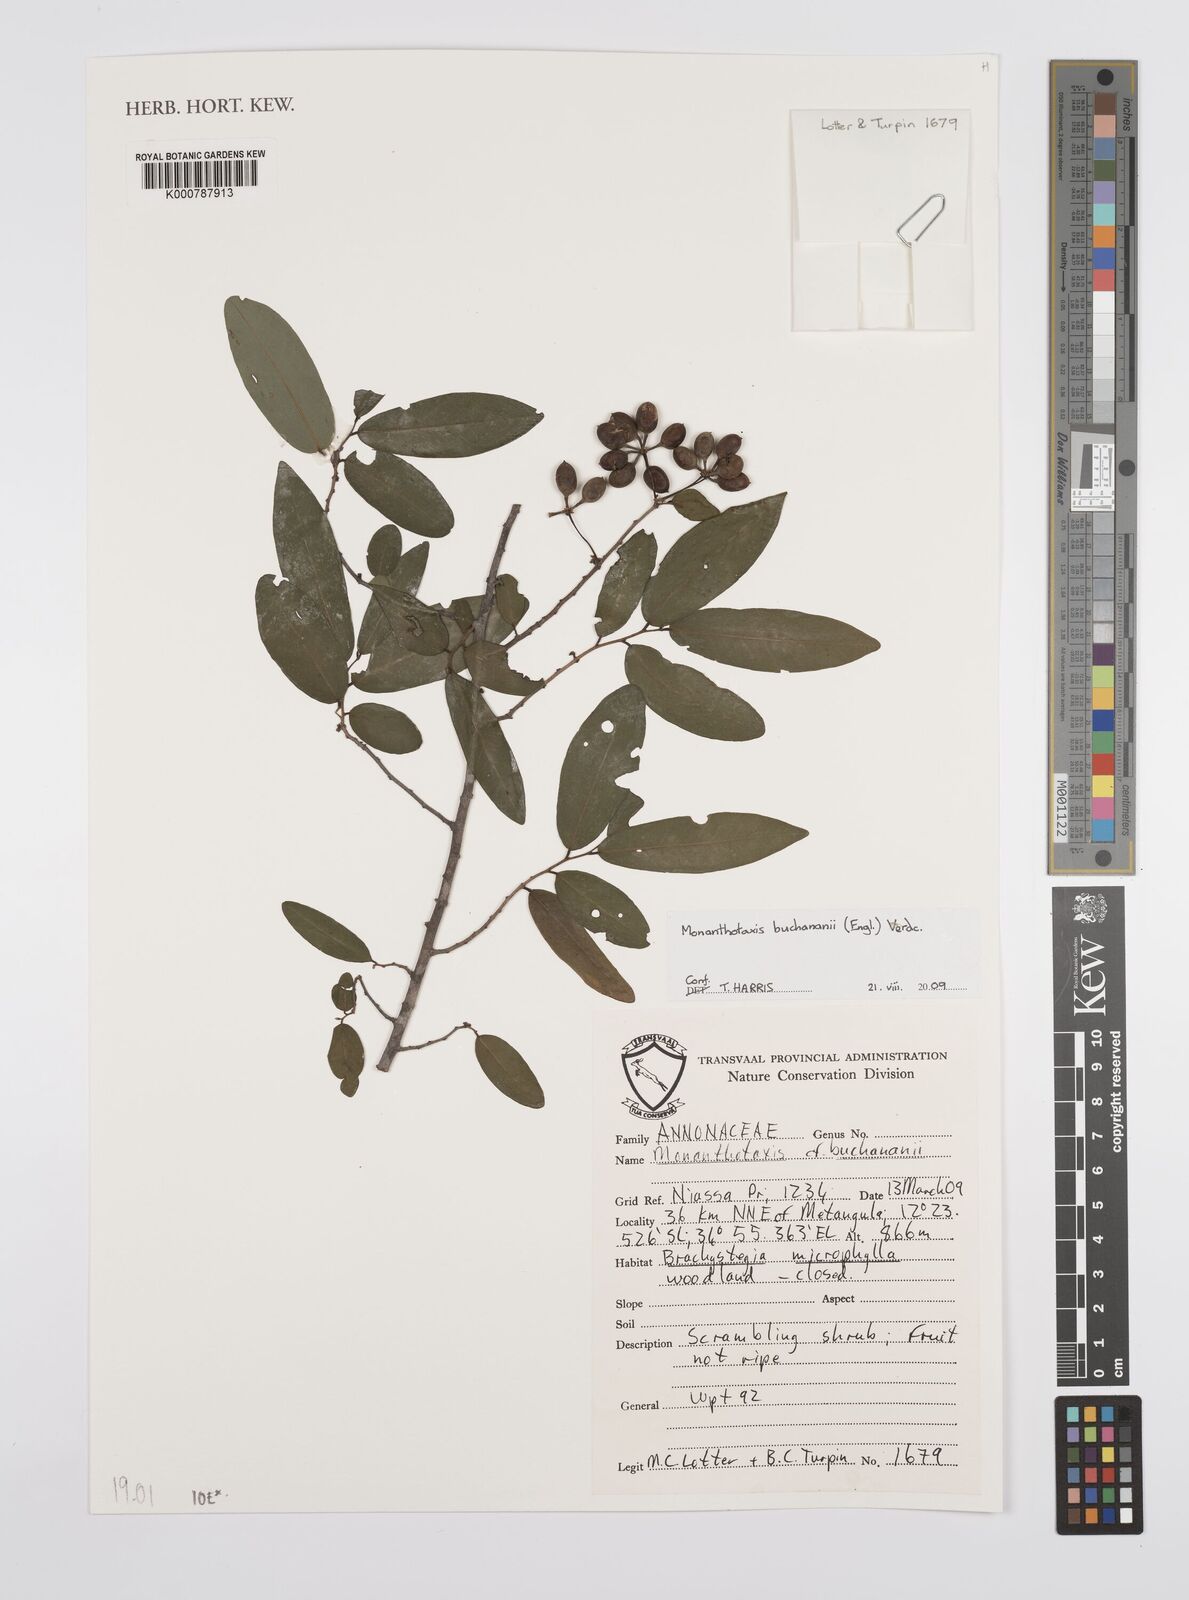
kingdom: Plantae
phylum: Tracheophyta
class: Magnoliopsida
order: Magnoliales
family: Annonaceae
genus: Monanthotaxis
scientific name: Monanthotaxis buchananii
